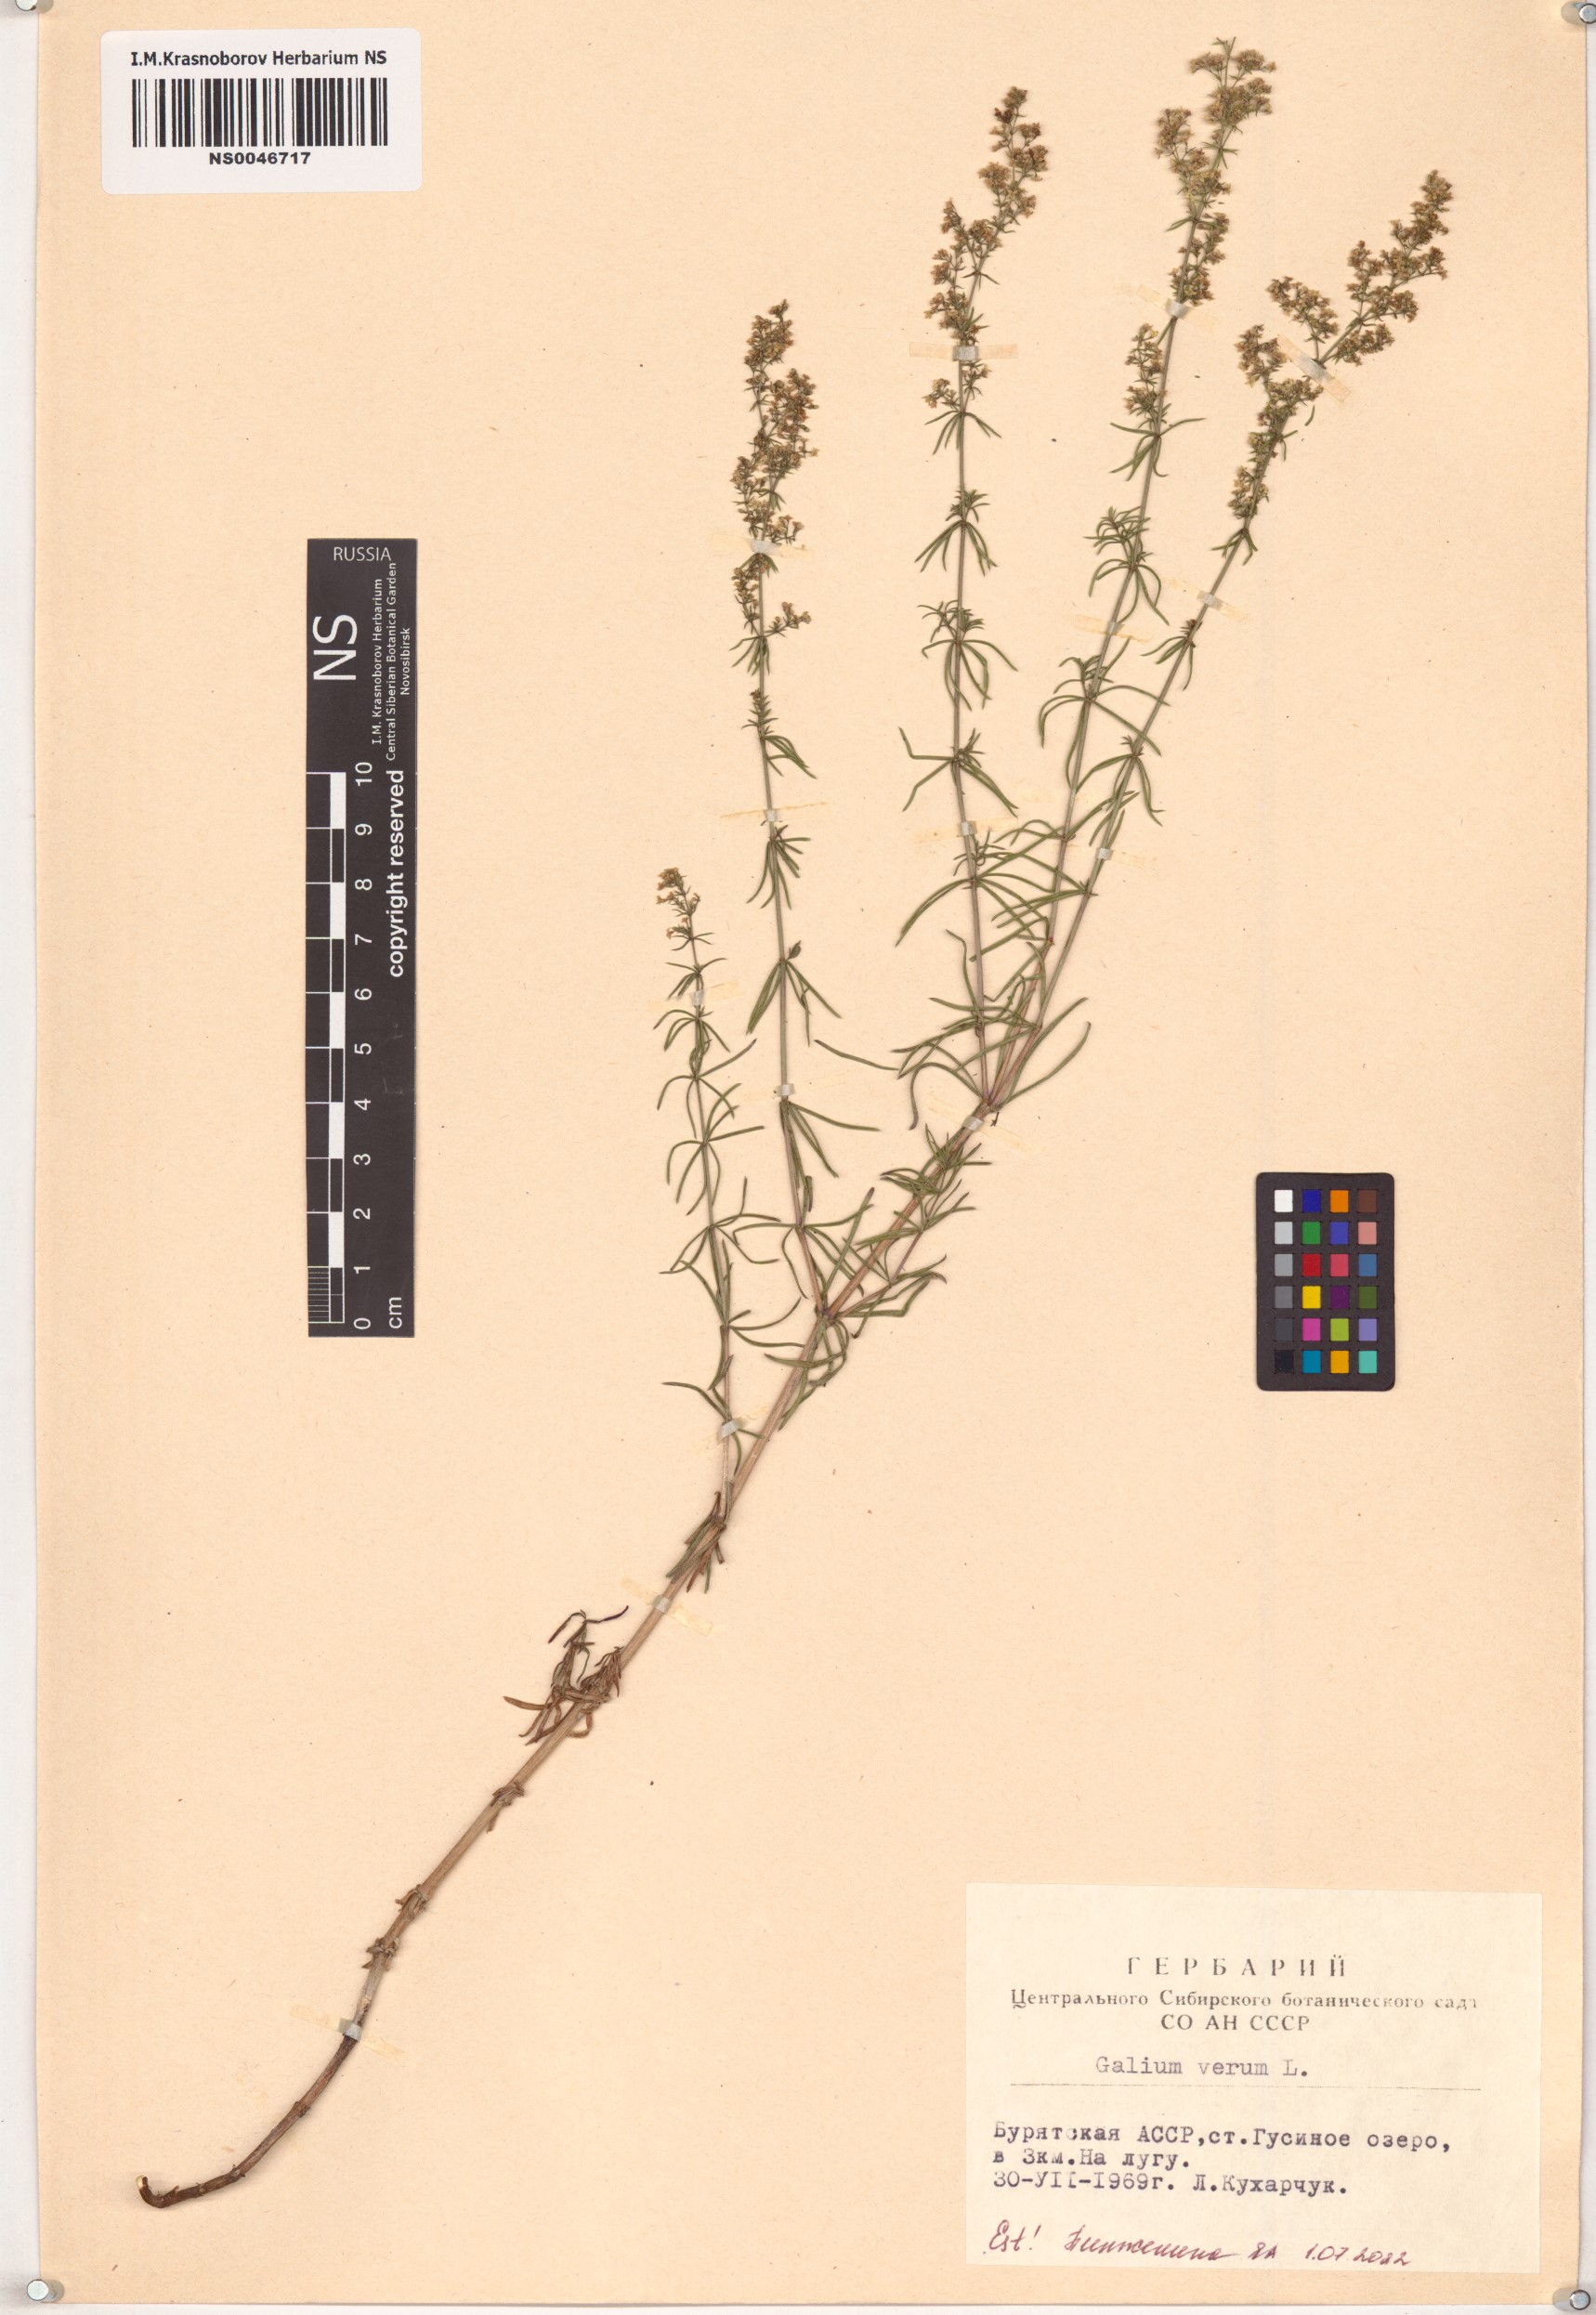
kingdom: Plantae
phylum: Tracheophyta
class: Magnoliopsida
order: Gentianales
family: Rubiaceae
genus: Galium
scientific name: Galium verum
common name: Lady's bedstraw
